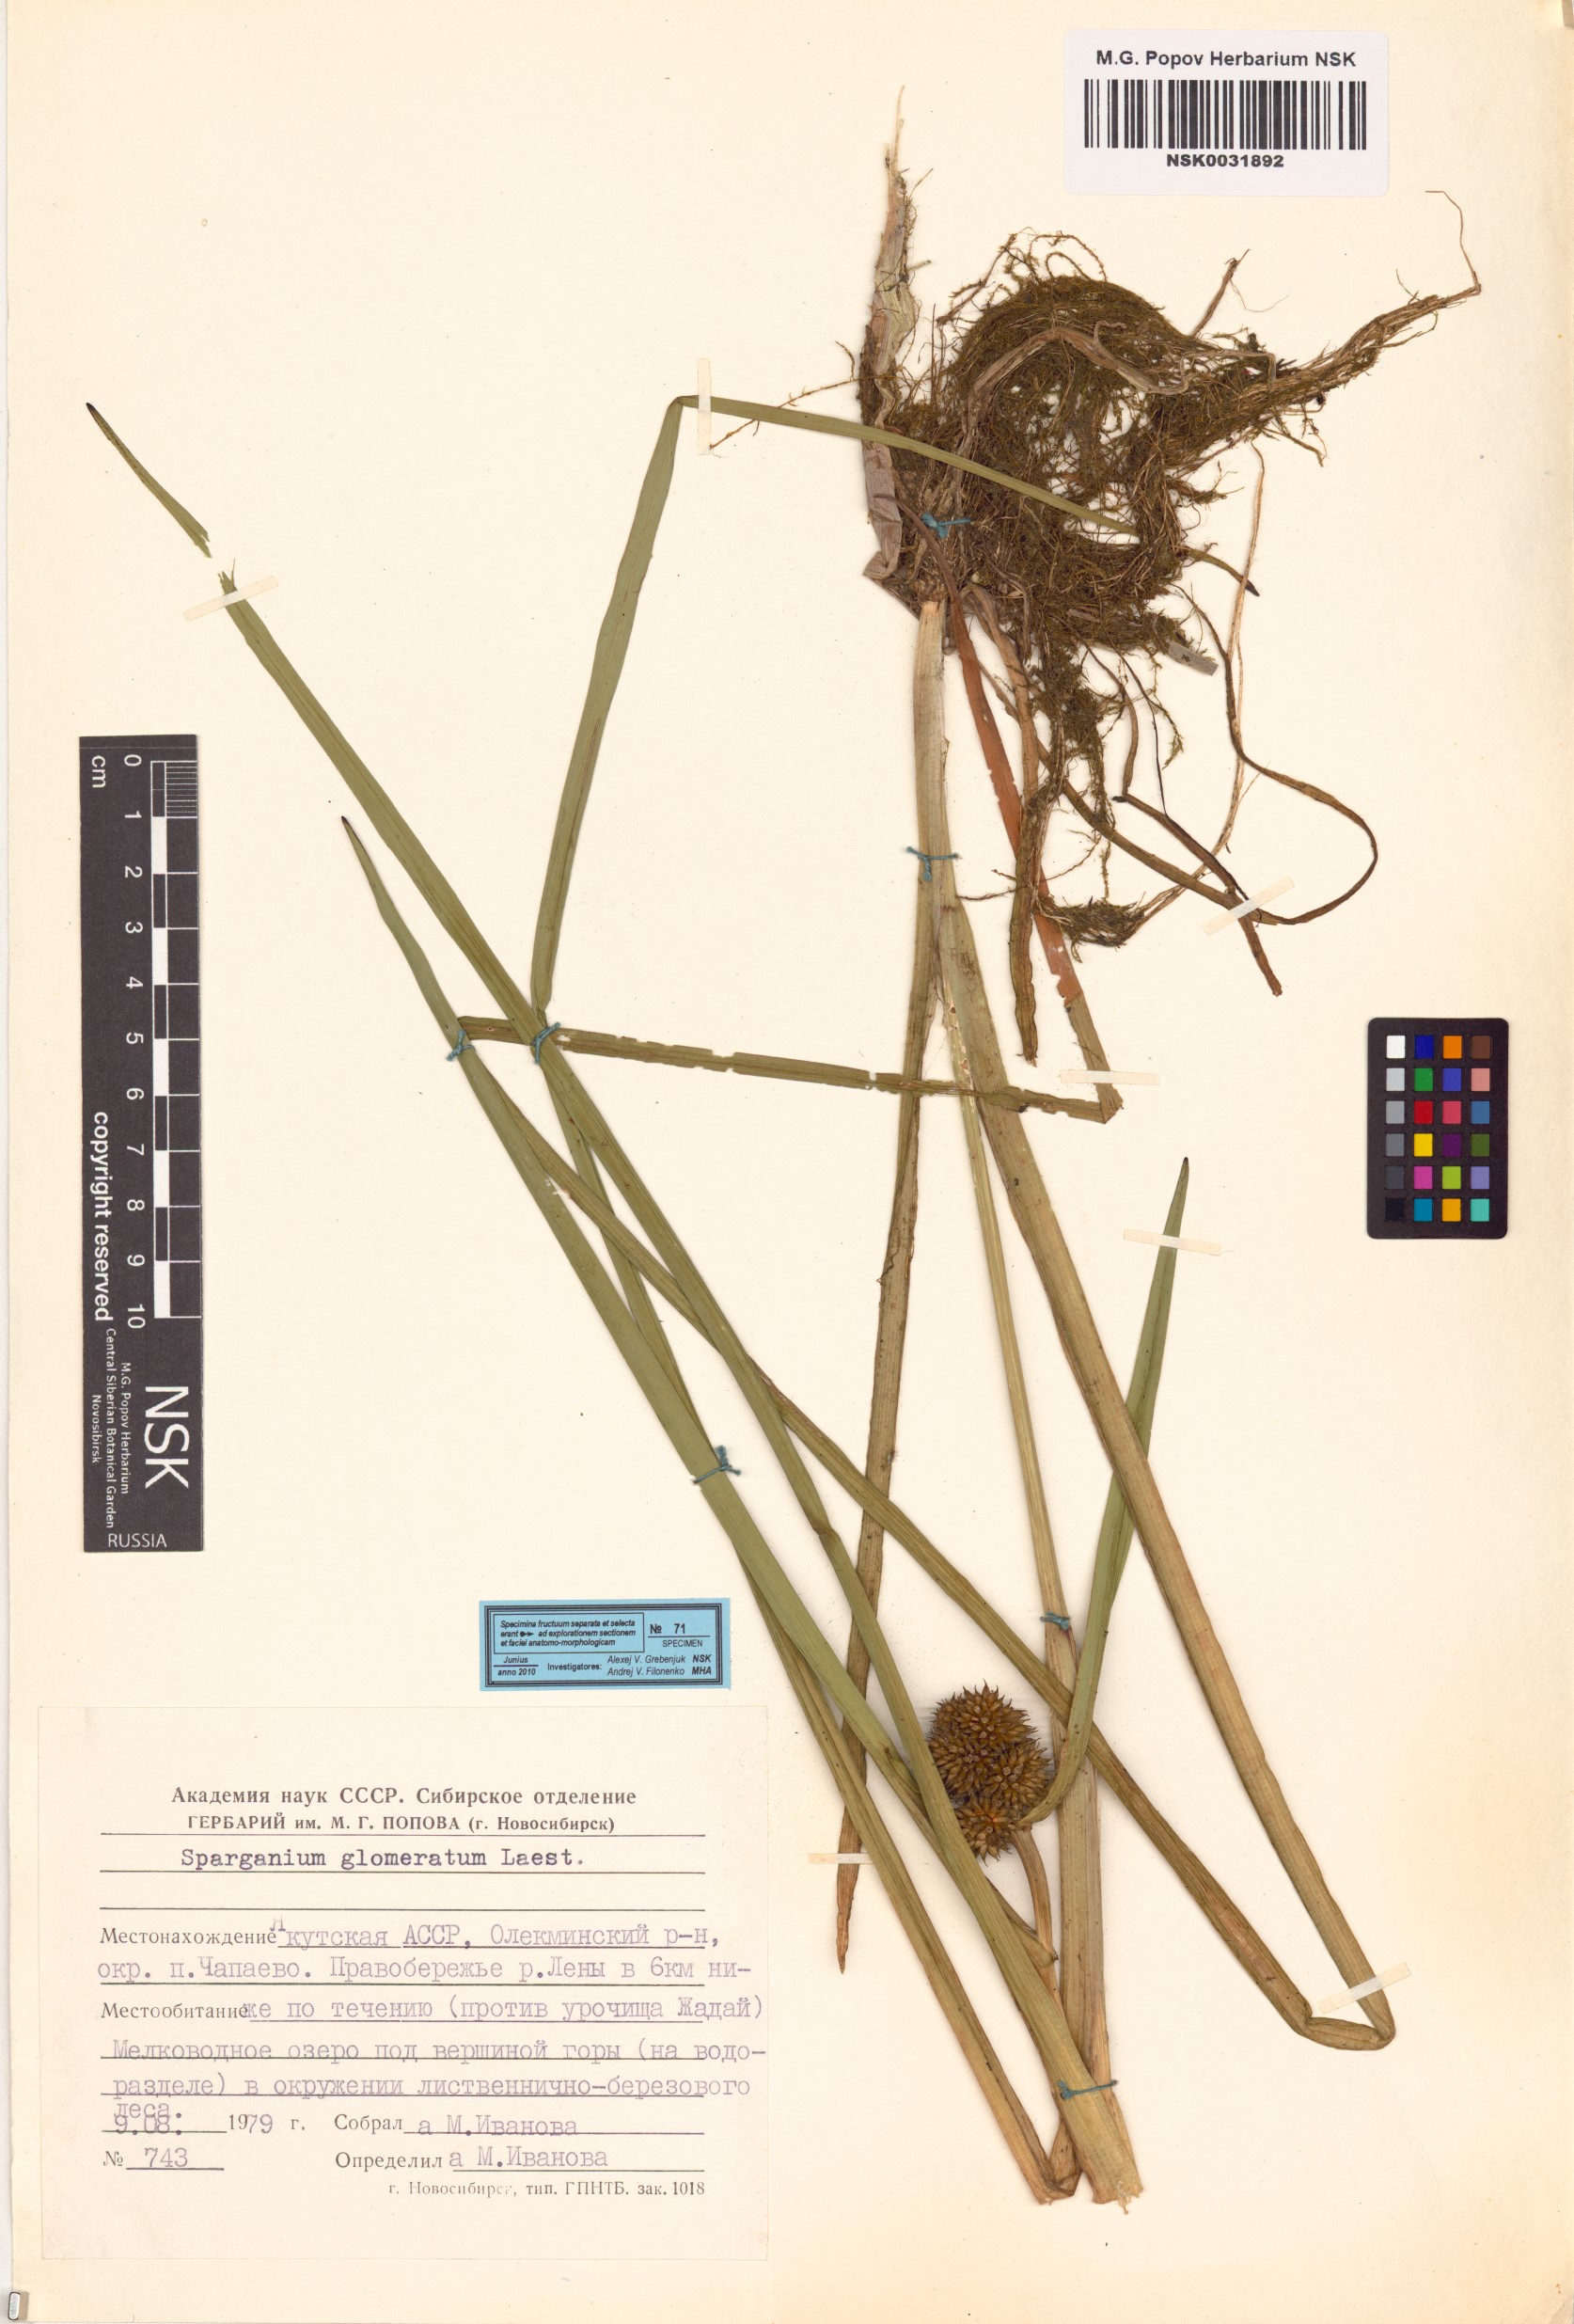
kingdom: Plantae
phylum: Tracheophyta
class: Liliopsida
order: Poales
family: Typhaceae
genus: Sparganium
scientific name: Sparganium glomeratum
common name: Clustered burreed
